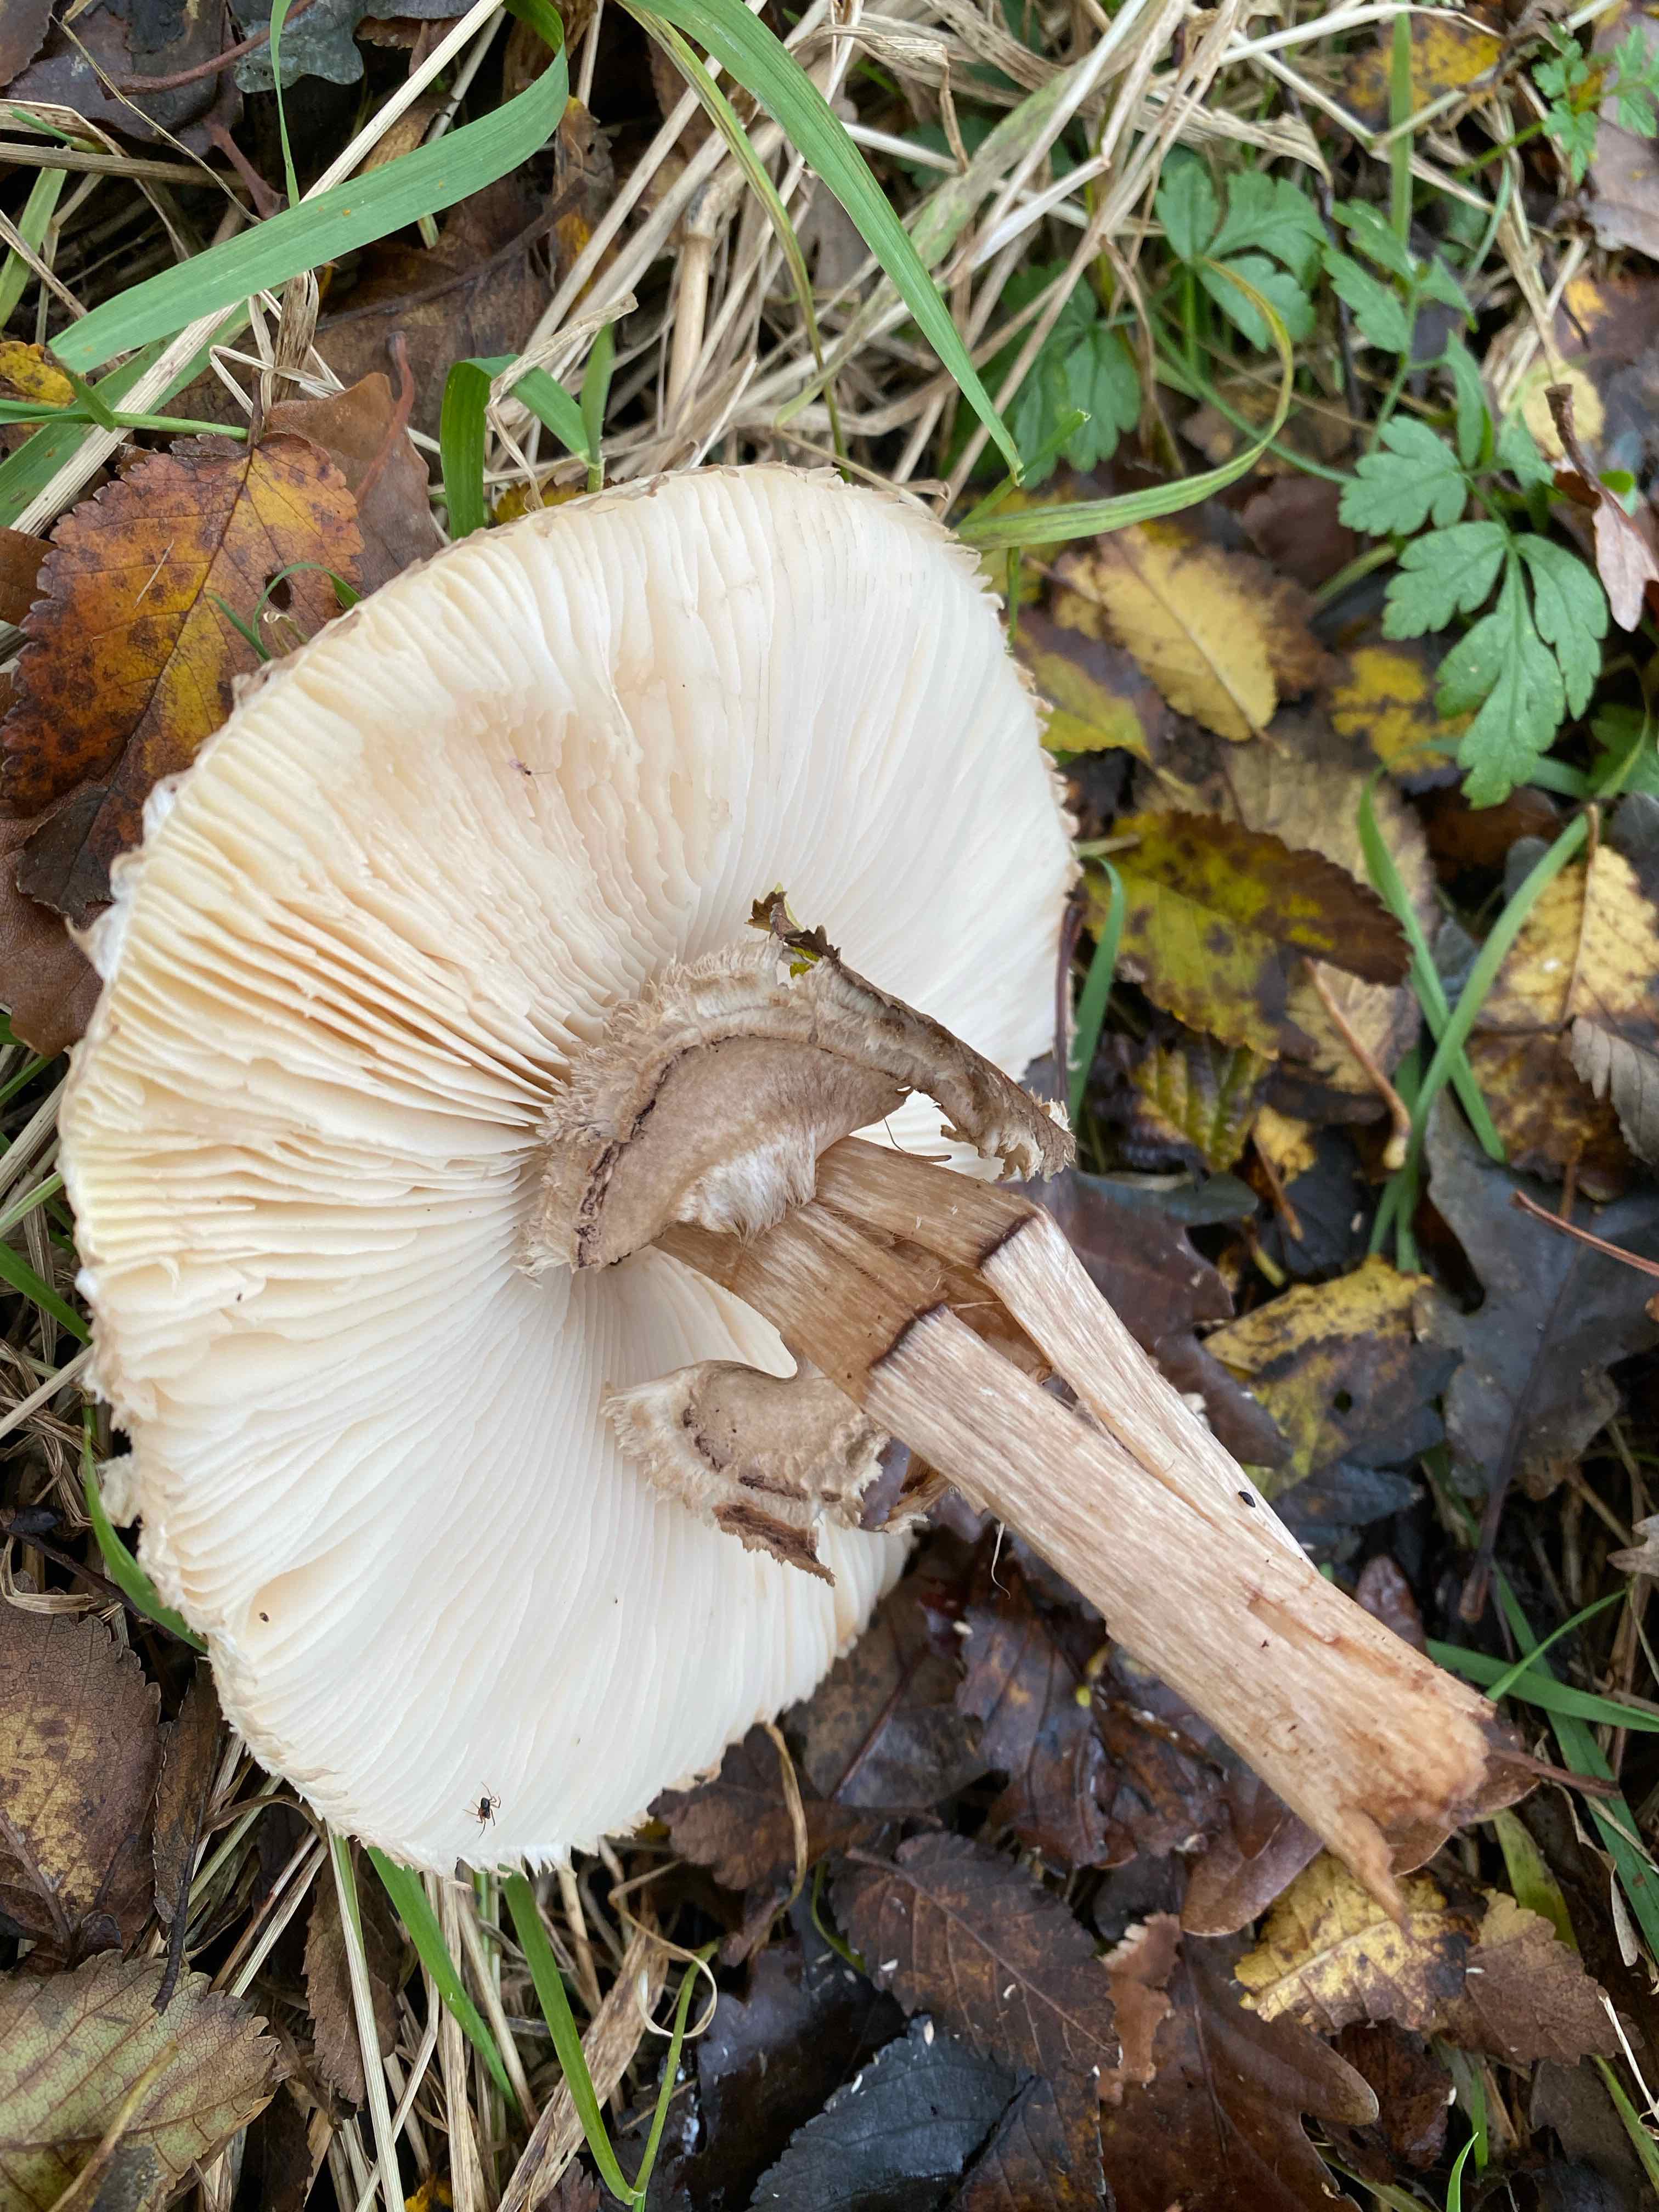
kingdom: Fungi
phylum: Basidiomycota
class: Agaricomycetes
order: Agaricales
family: Agaricaceae
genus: Chlorophyllum
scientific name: Chlorophyllum rhacodes
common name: ægte rabarberhat
